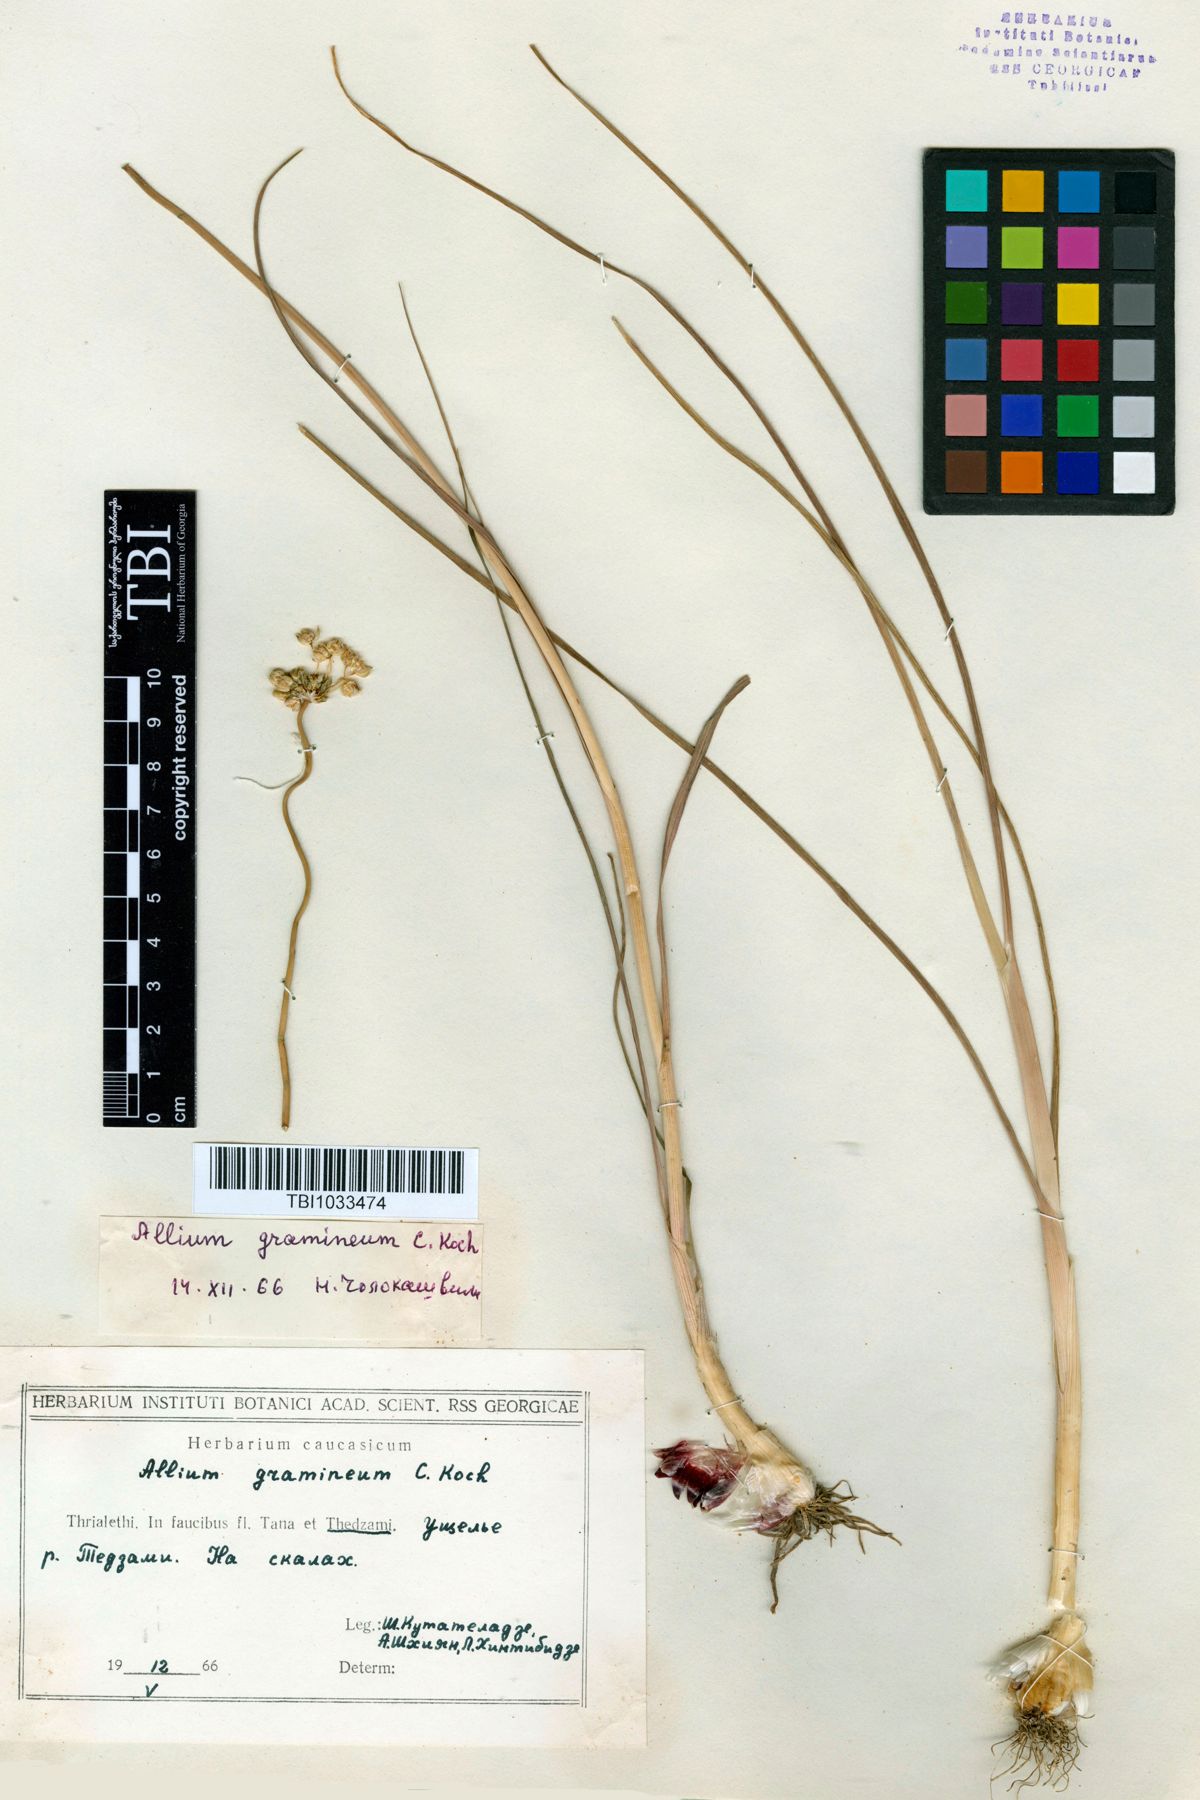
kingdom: Plantae
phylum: Tracheophyta
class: Liliopsida
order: Asparagales
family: Amaryllidaceae
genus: Allium
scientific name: Allium gramineum
